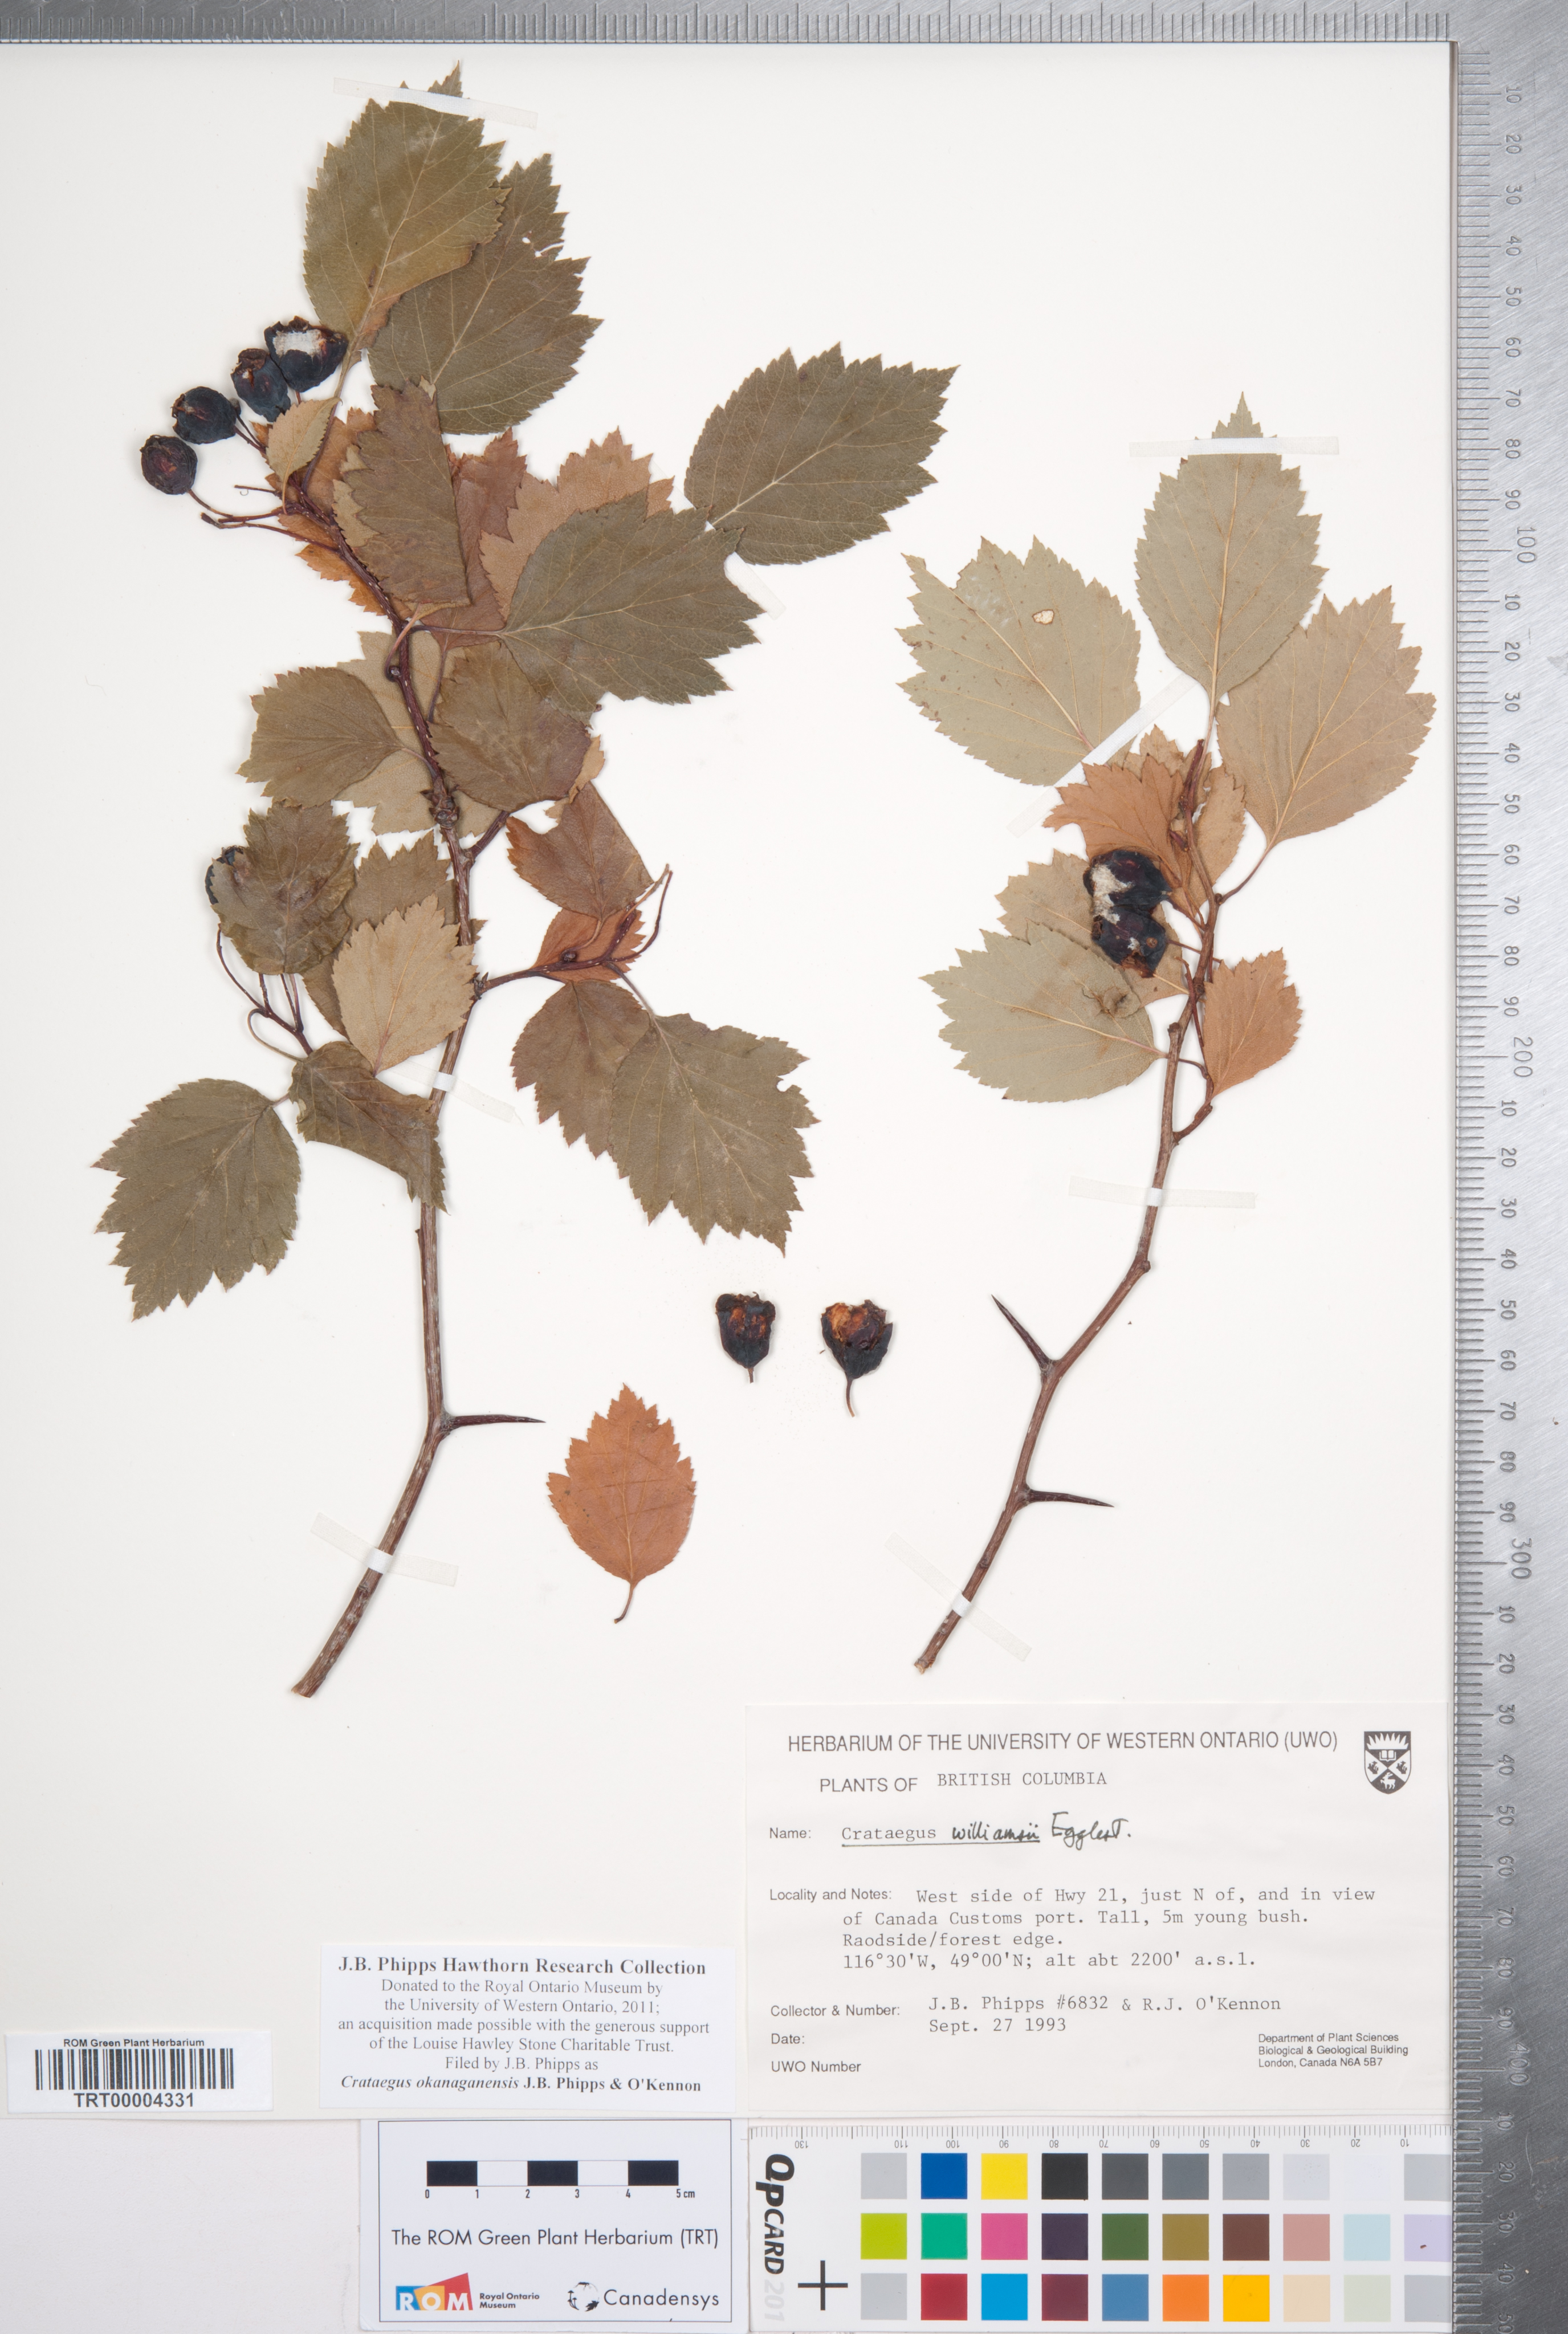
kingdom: Plantae
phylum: Tracheophyta
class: Magnoliopsida
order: Rosales
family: Rosaceae
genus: Crataegus
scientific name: Crataegus okanaganensis
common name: Okanagan valley hawthorn
